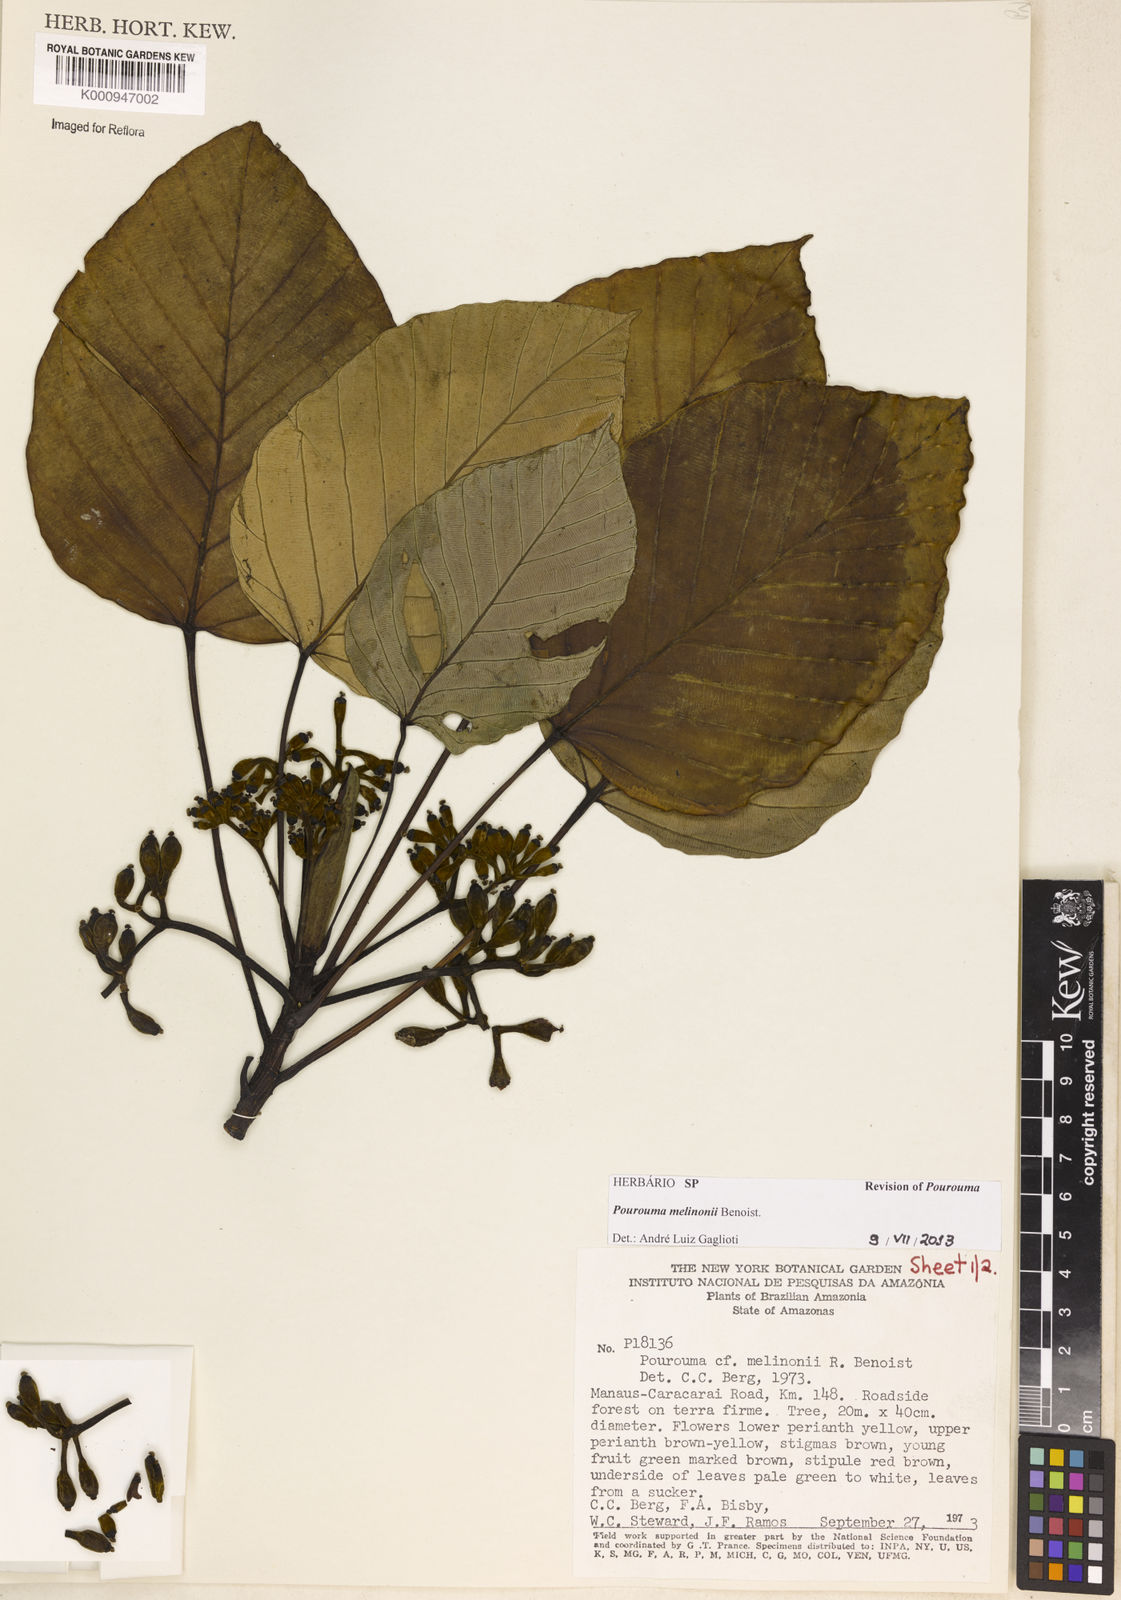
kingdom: Plantae
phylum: Tracheophyta
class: Magnoliopsida
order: Rosales
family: Urticaceae
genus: Pourouma
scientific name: Pourouma melinonii
